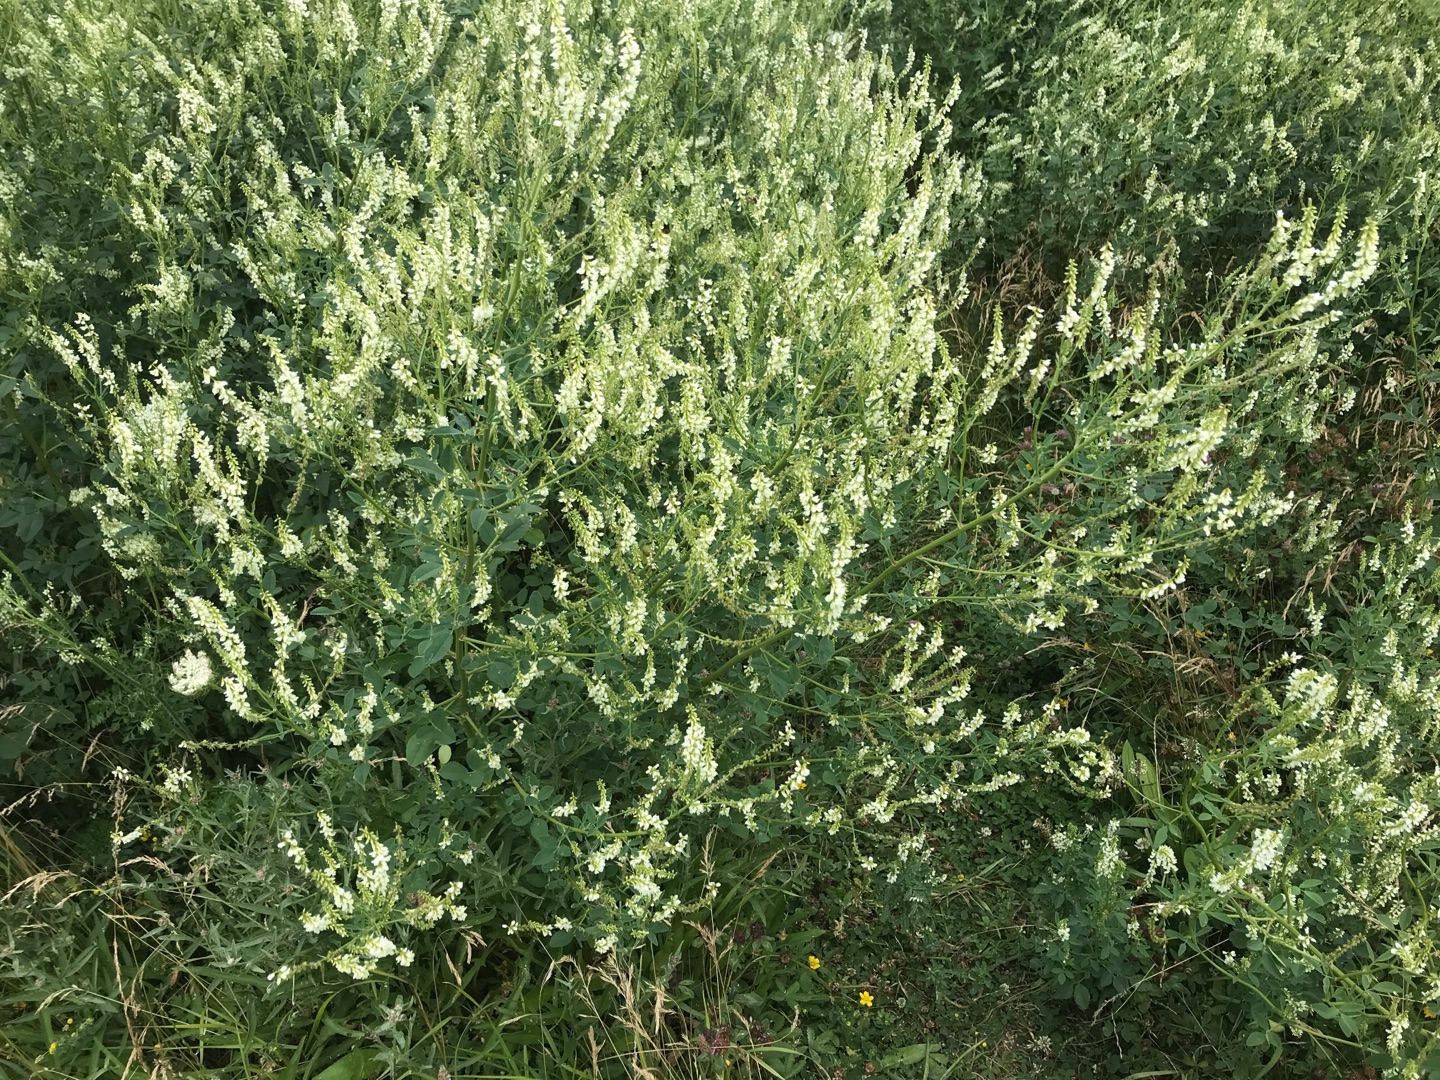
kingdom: Plantae
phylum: Tracheophyta
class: Magnoliopsida
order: Fabales
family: Fabaceae
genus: Melilotus
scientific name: Melilotus albus
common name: Hvid stenkløver
